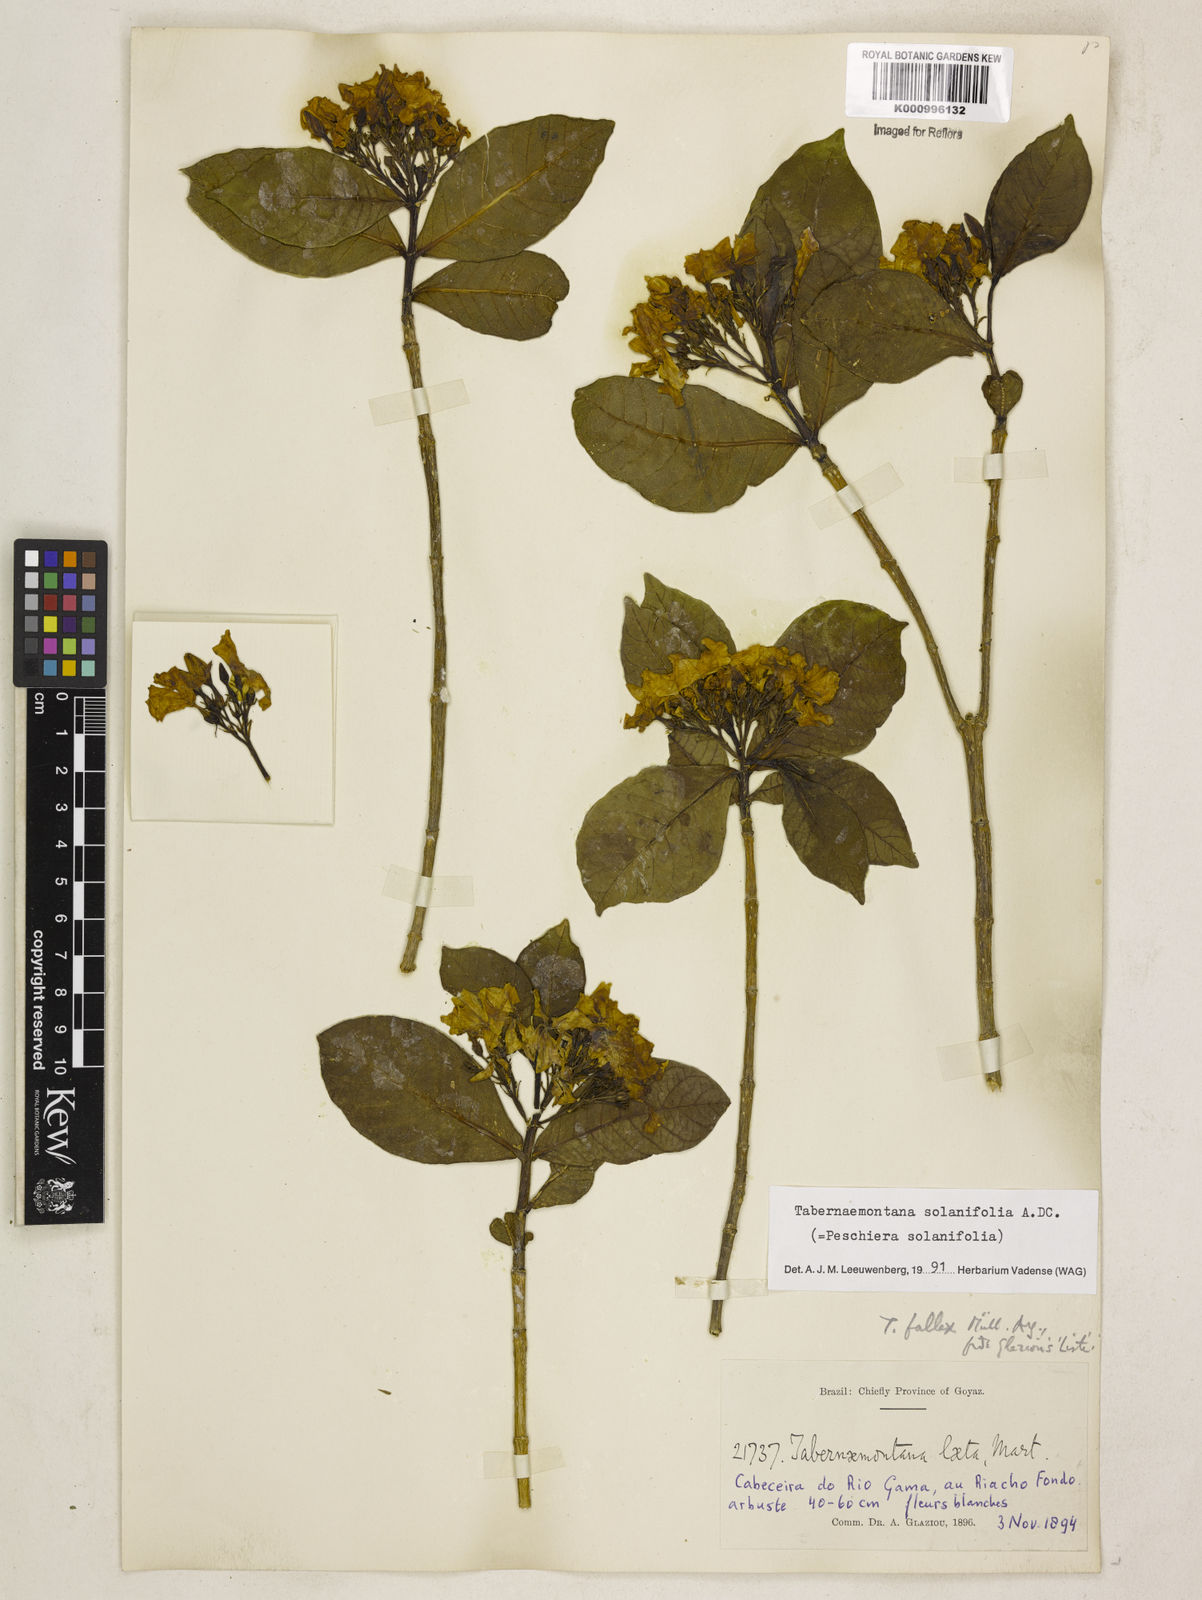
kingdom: Plantae
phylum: Tracheophyta
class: Magnoliopsida
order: Gentianales
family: Apocynaceae
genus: Tabernaemontana
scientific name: Tabernaemontana solanifolia
